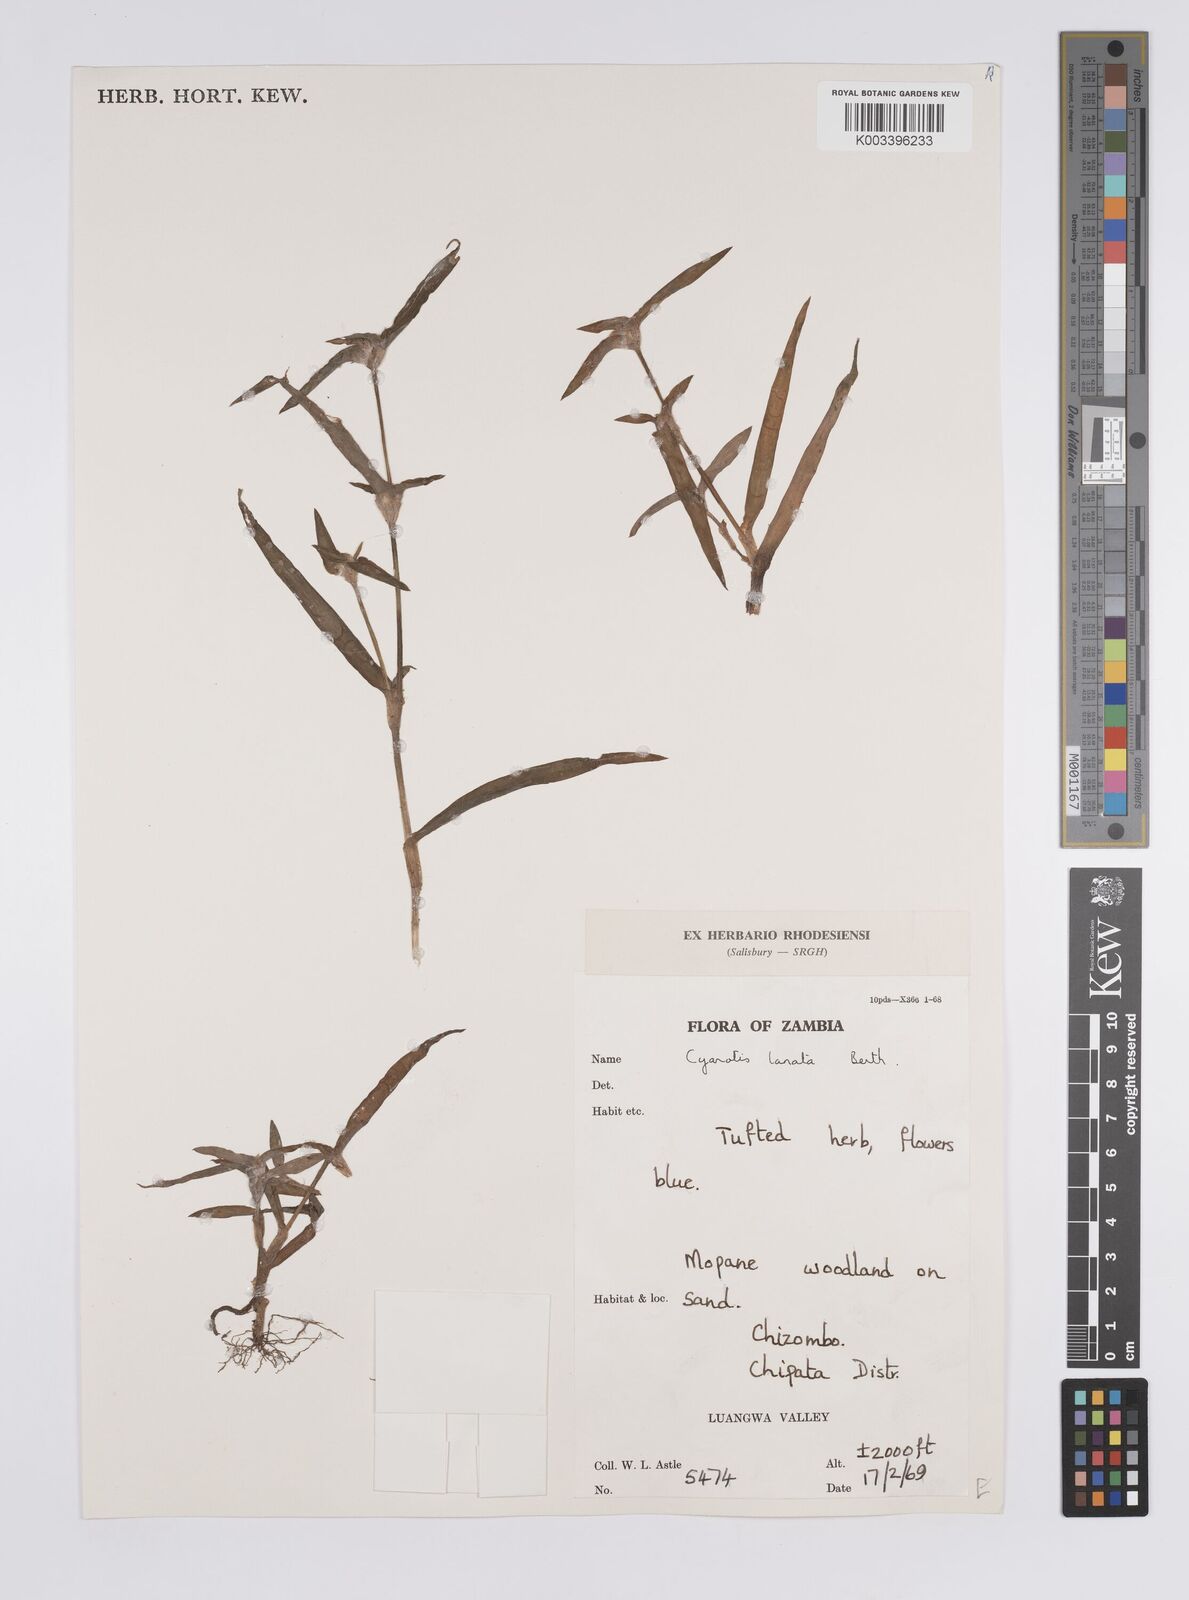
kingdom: Plantae
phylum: Tracheophyta
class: Liliopsida
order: Commelinales
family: Commelinaceae
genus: Cyanotis
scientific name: Cyanotis lanata
